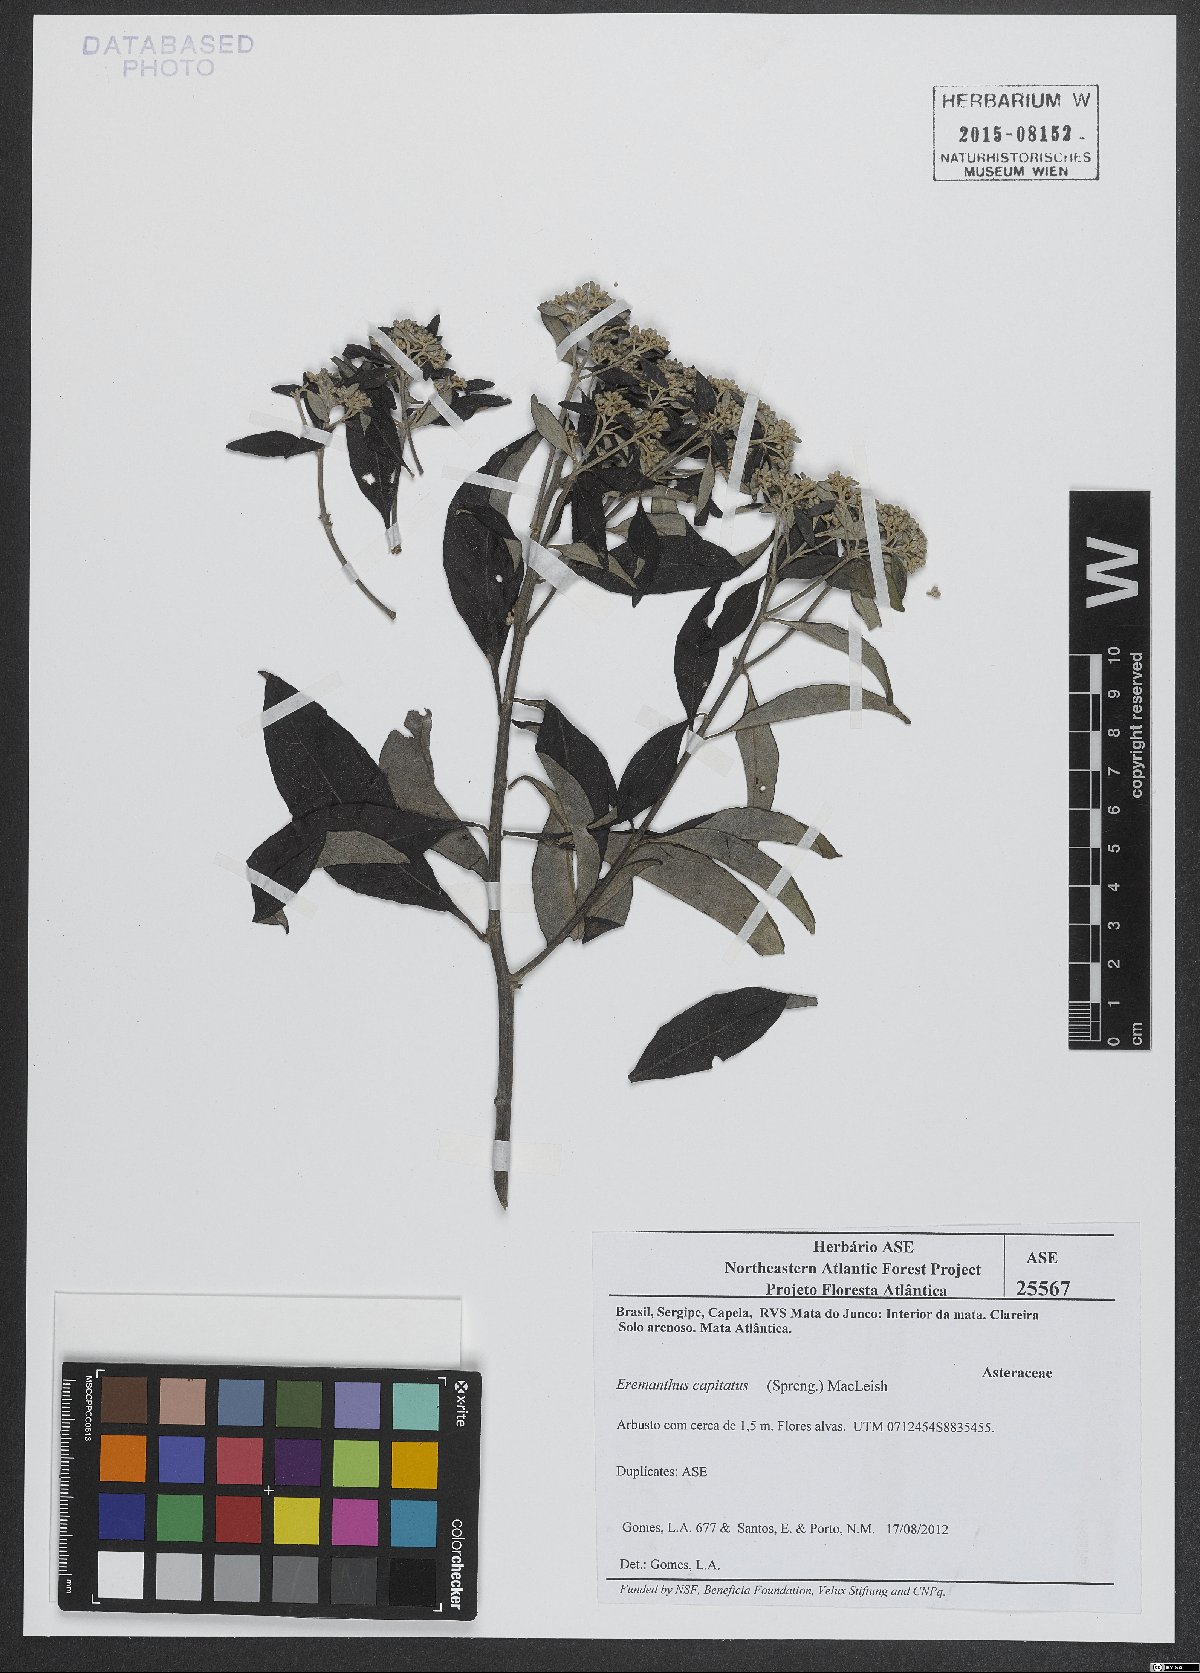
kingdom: Plantae
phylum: Tracheophyta
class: Magnoliopsida
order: Asterales
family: Asteraceae
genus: Eremanthus
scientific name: Eremanthus capitatus
